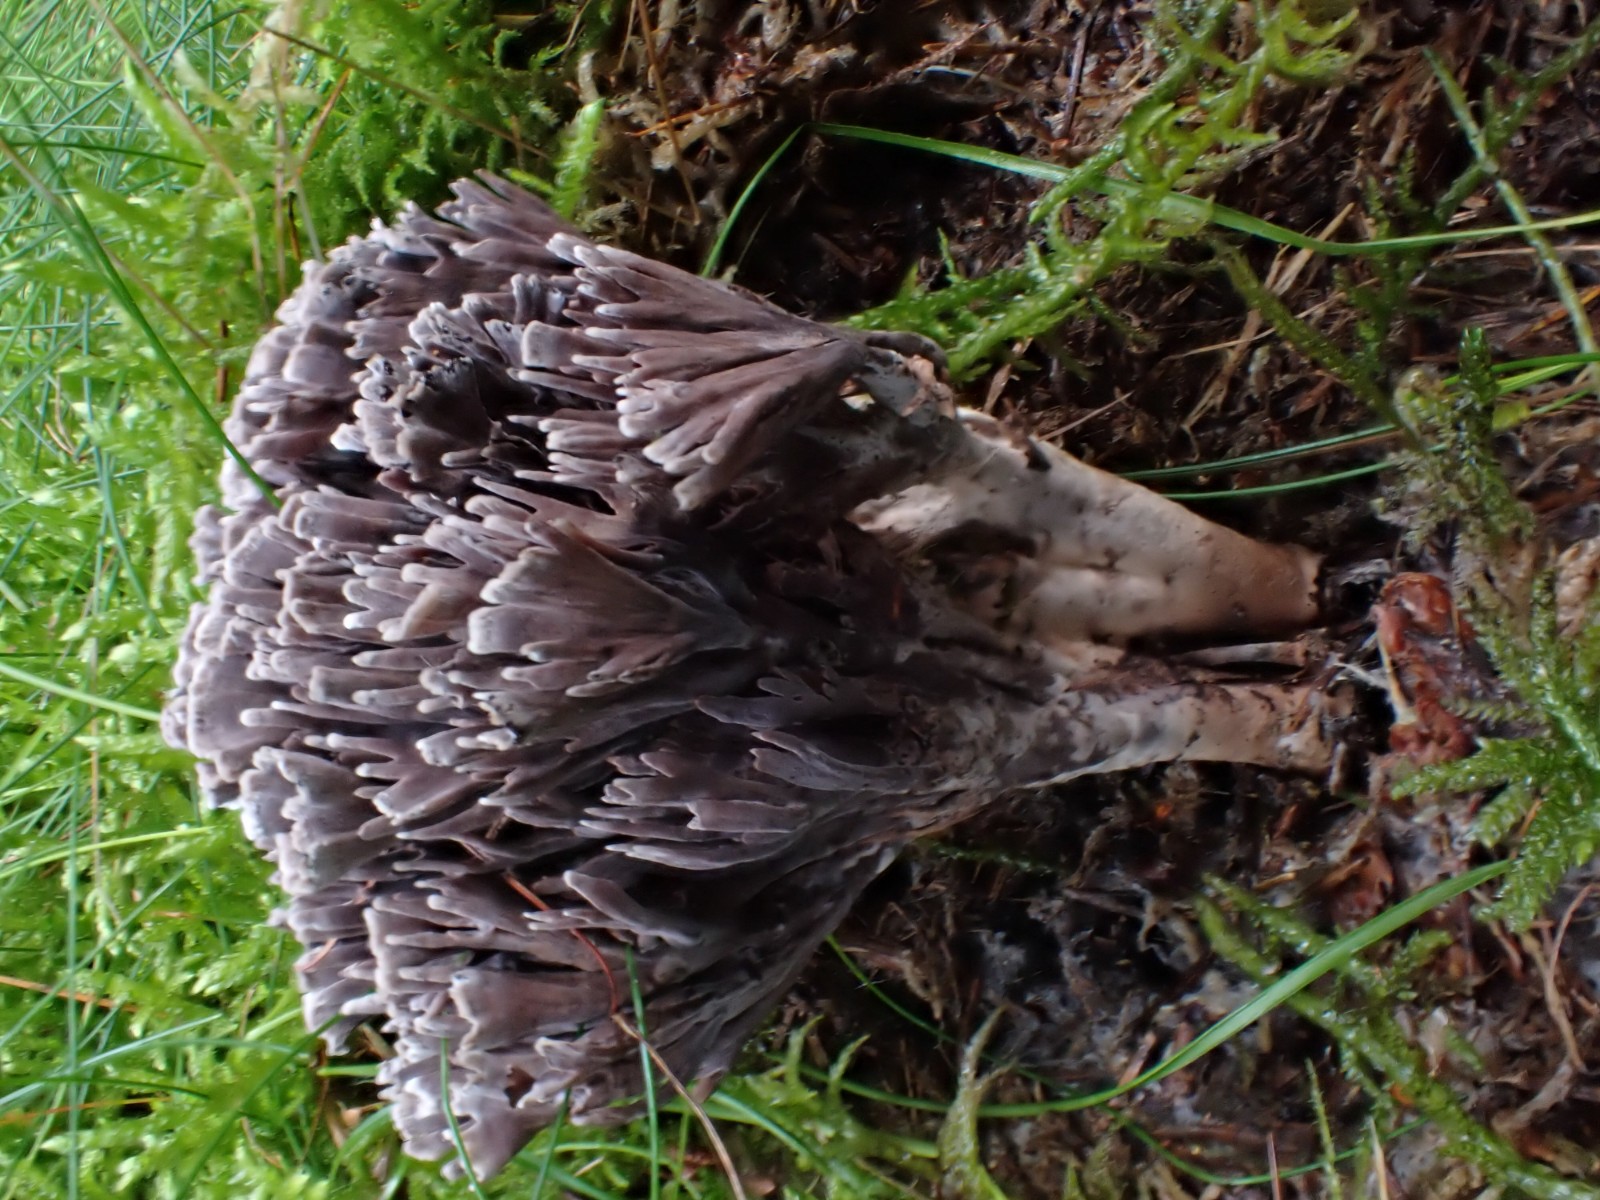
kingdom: Fungi
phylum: Basidiomycota
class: Agaricomycetes
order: Thelephorales
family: Thelephoraceae
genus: Thelephora
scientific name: Thelephora palmata
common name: grenet frynsesvamp
